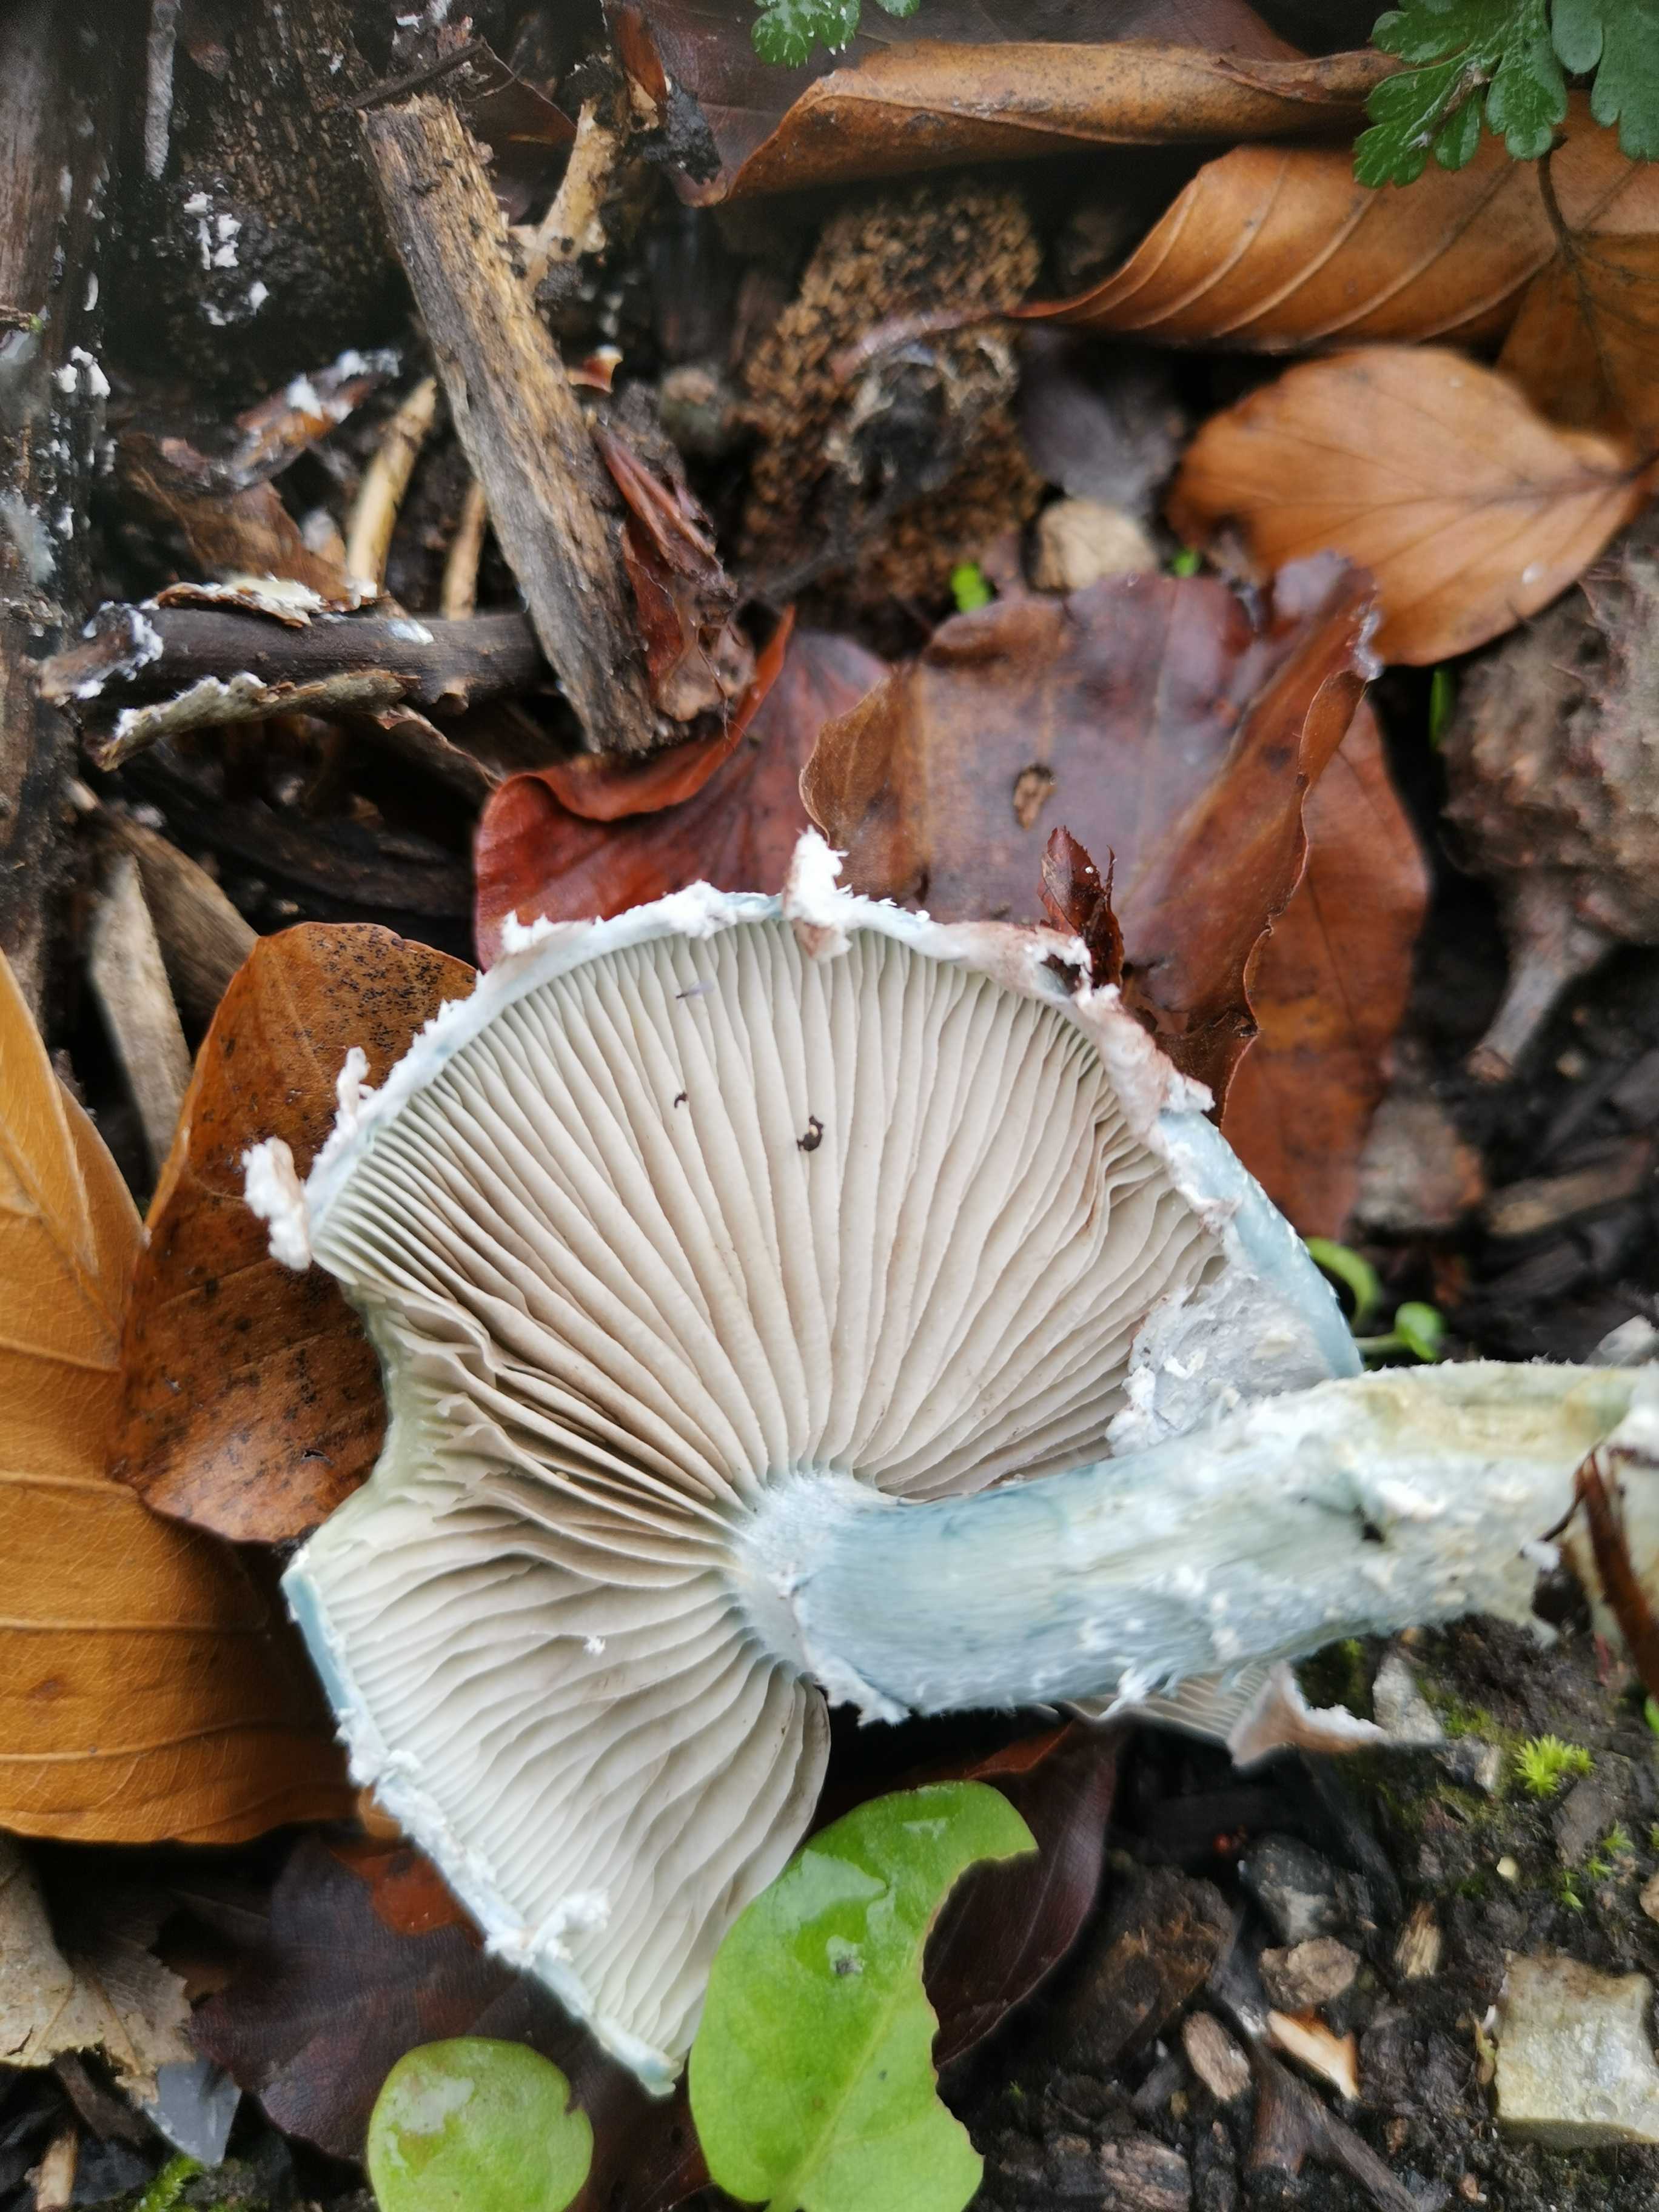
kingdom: Fungi
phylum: Basidiomycota
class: Agaricomycetes
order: Agaricales
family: Strophariaceae
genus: Stropharia
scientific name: Stropharia cyanea
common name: blågrøn bredblad
